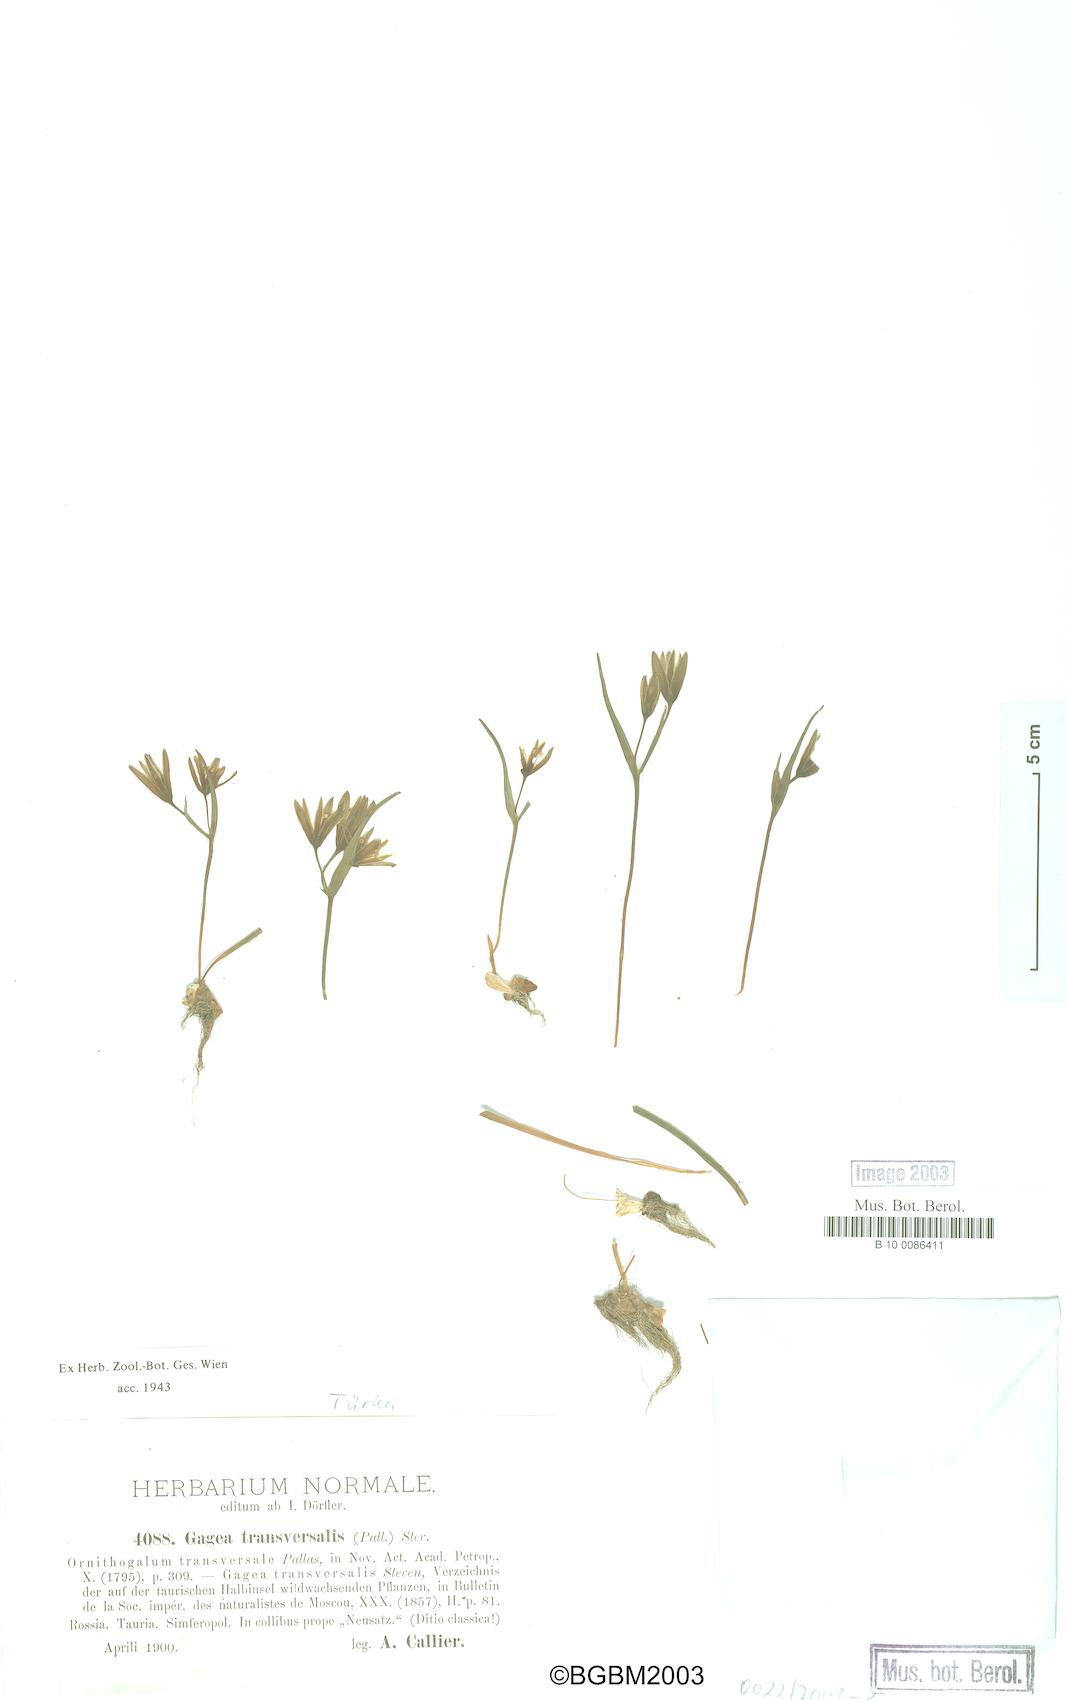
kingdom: Plantae
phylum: Tracheophyta
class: Liliopsida
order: Liliales
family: Liliaceae
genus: Gagea
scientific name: Gagea transversalis
